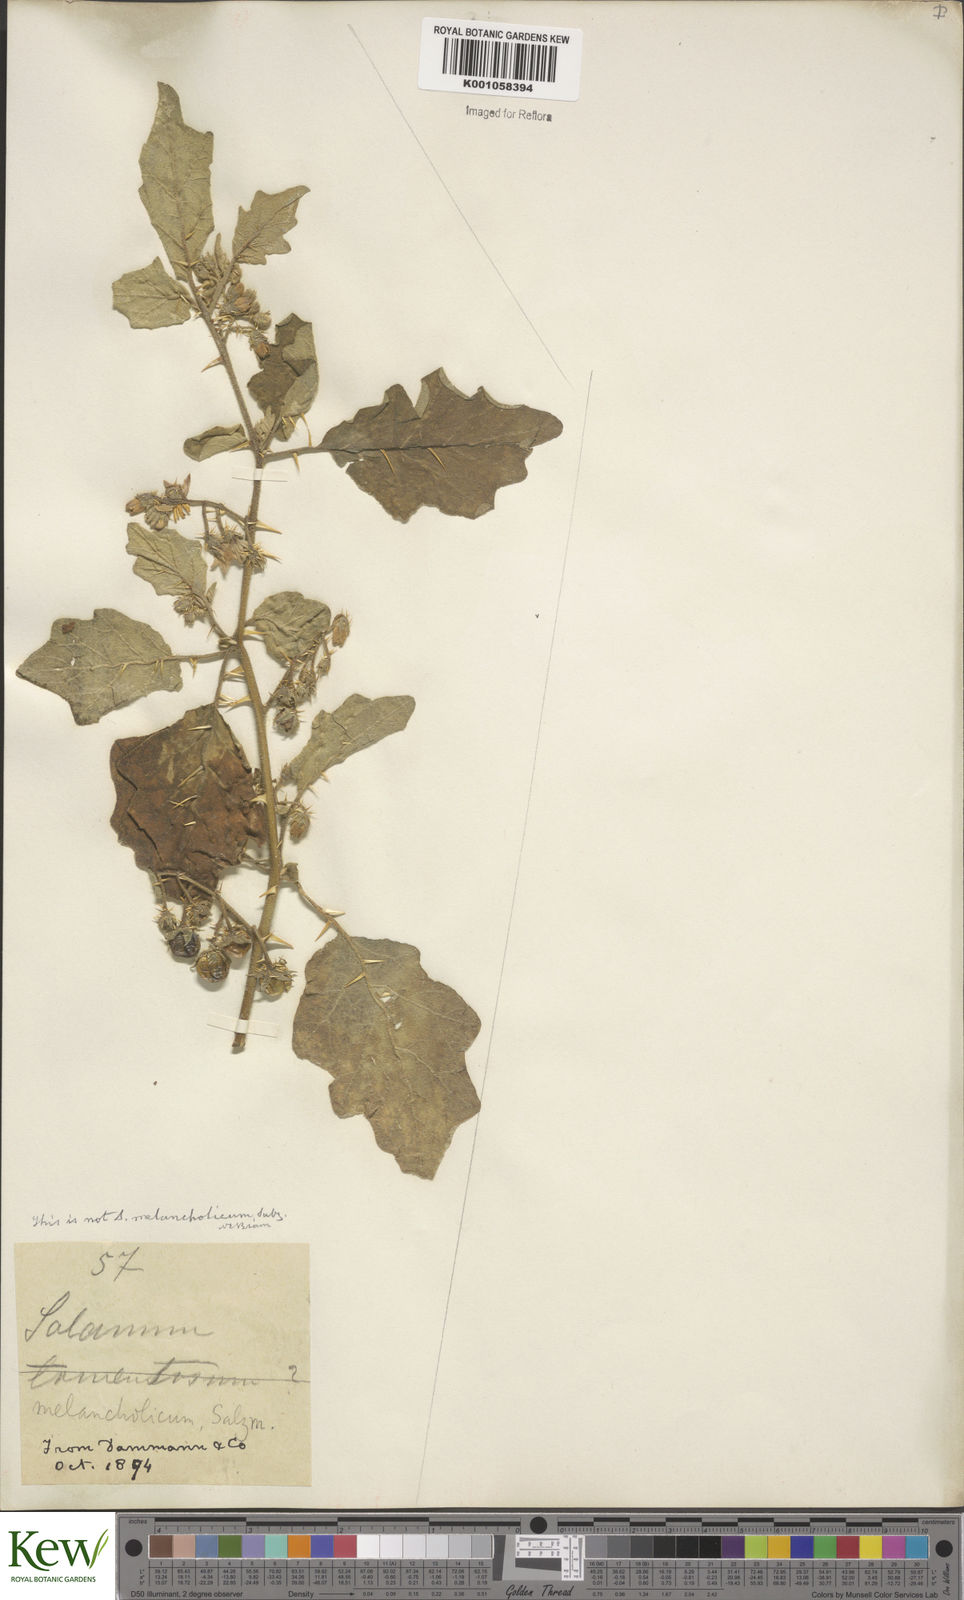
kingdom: Plantae
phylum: Tracheophyta
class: Magnoliopsida
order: Solanales
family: Solanaceae
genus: Solanum
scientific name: Solanum
